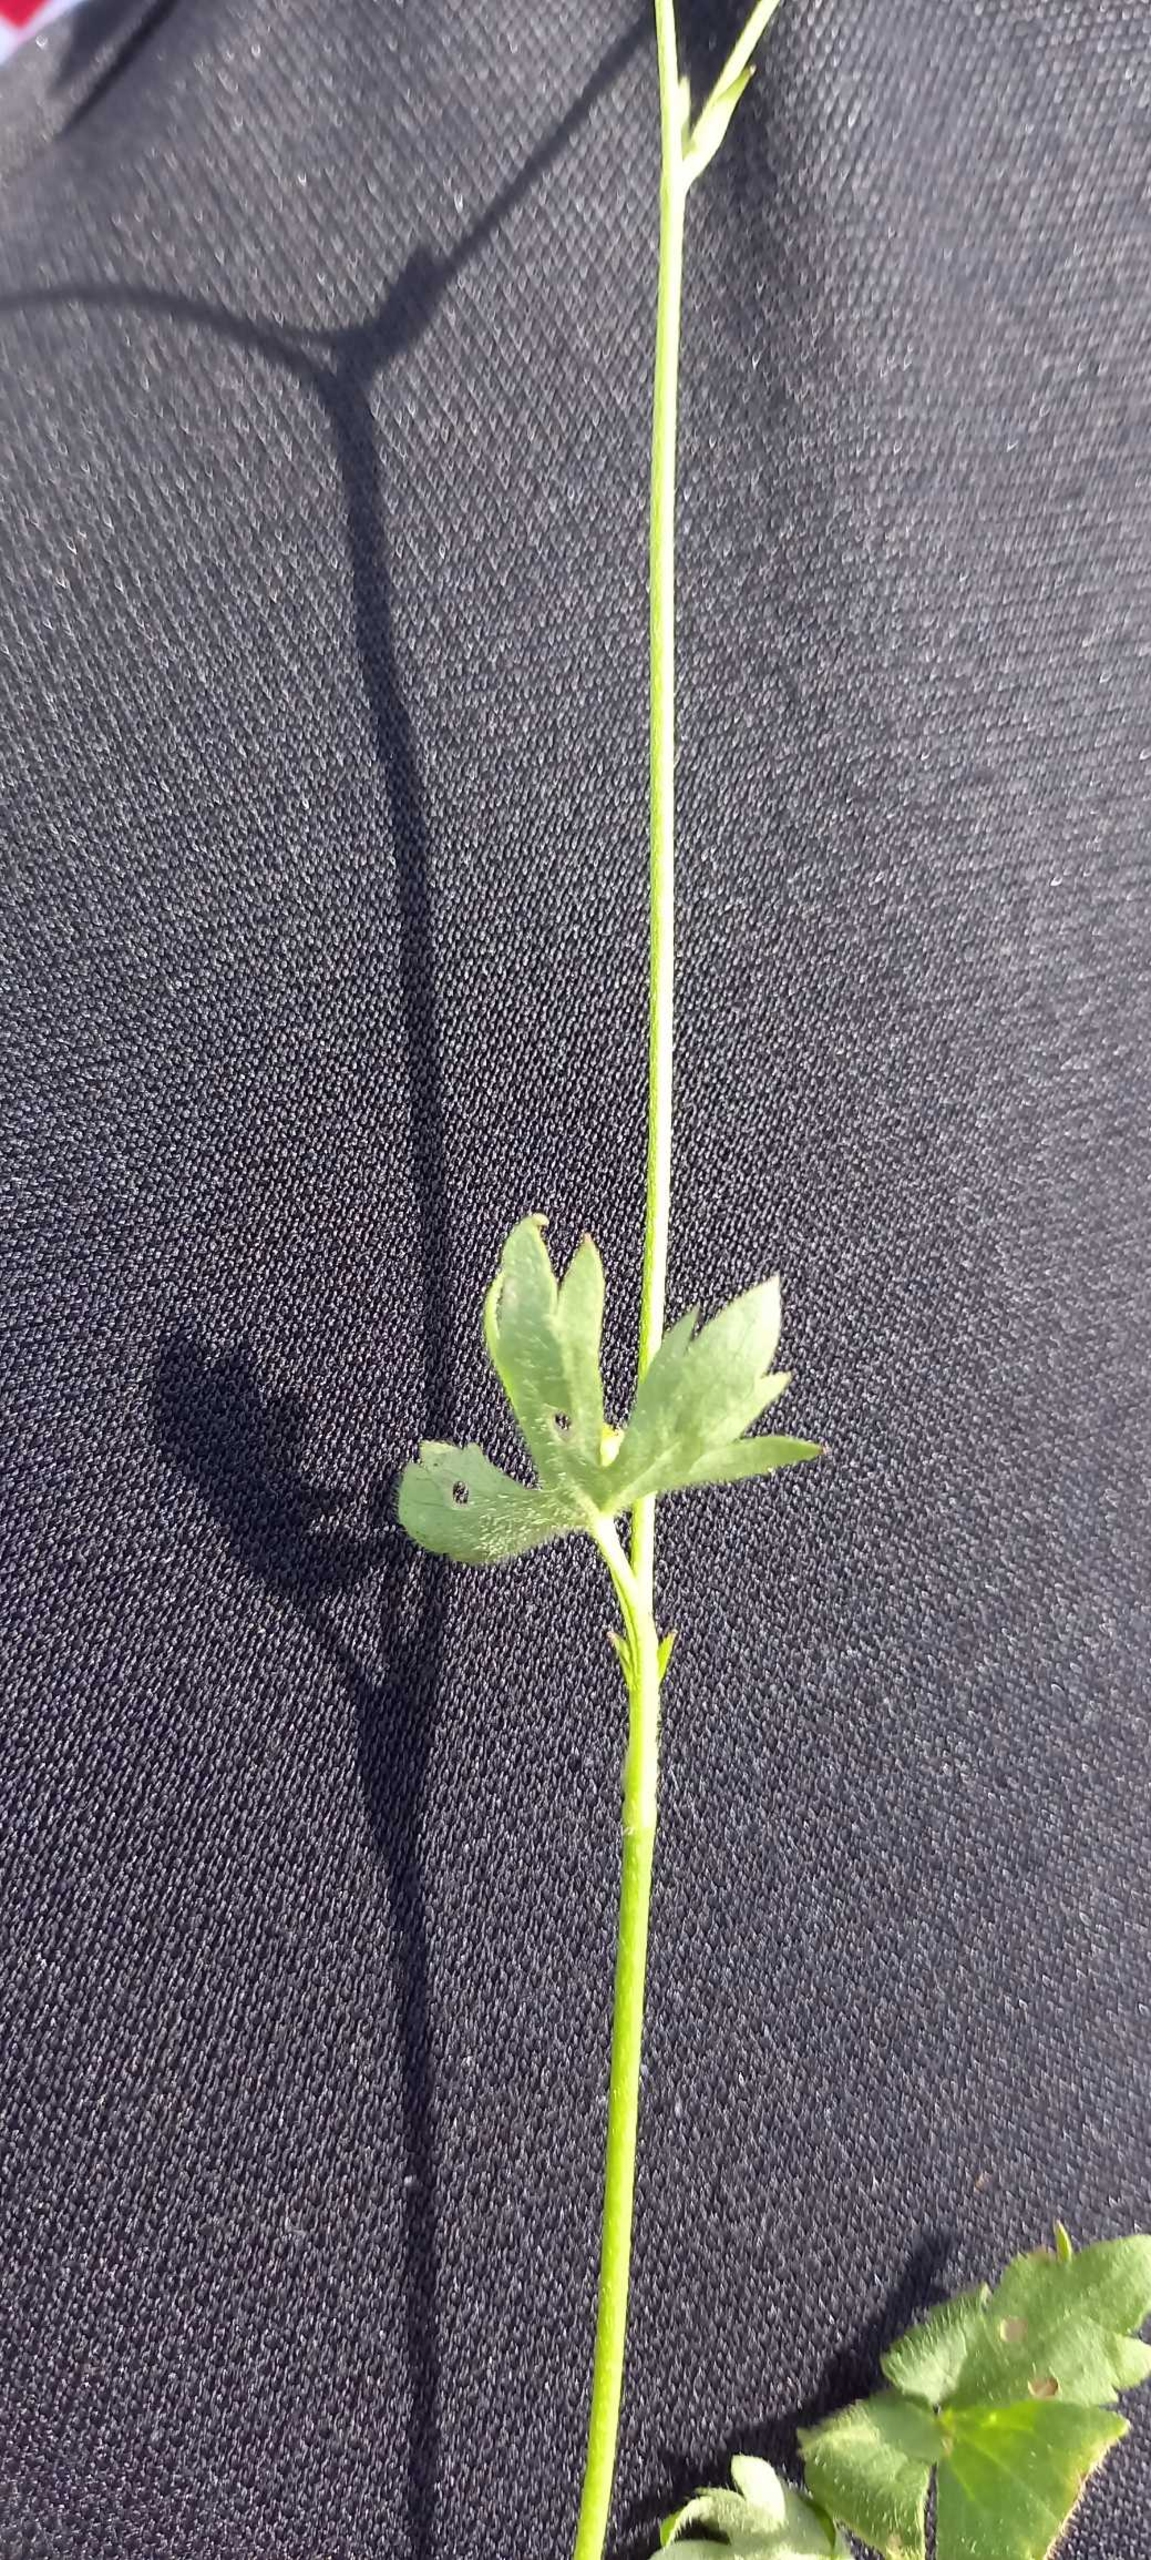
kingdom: Plantae
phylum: Tracheophyta
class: Magnoliopsida
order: Ranunculales
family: Ranunculaceae
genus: Ranunculus
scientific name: Ranunculus acris
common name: Bidende ranunkel
